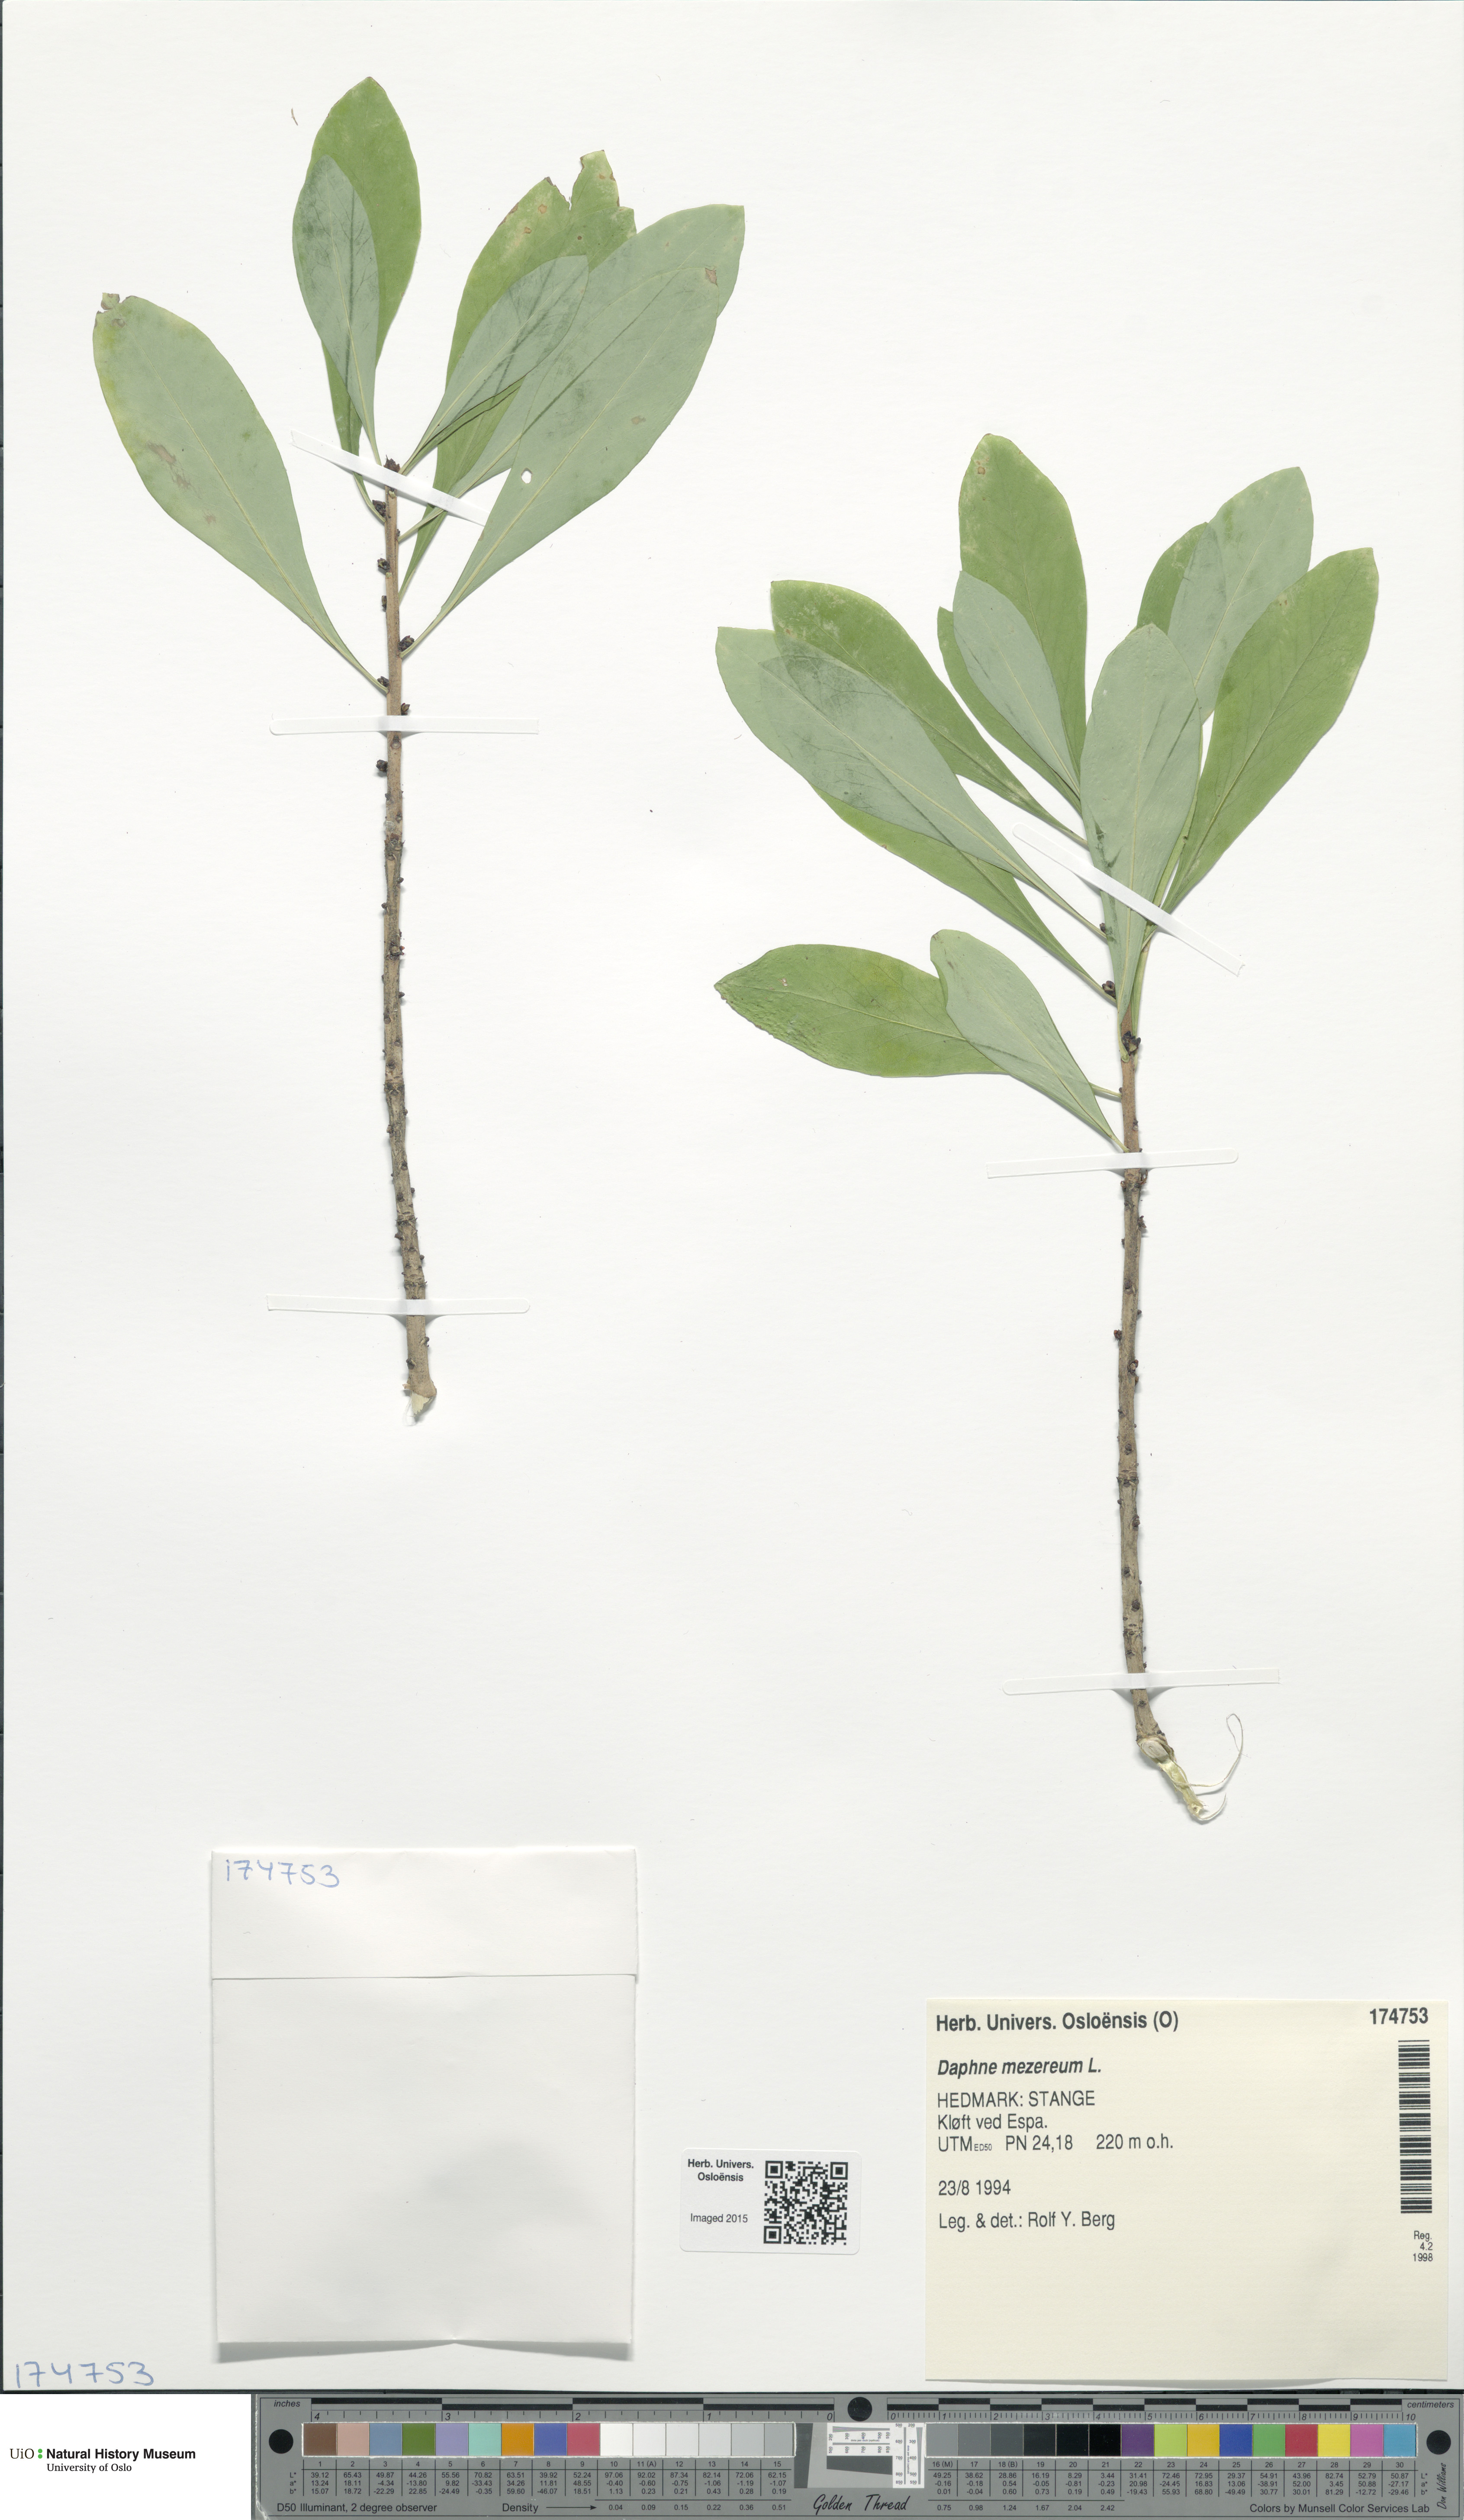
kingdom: Plantae
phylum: Tracheophyta
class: Magnoliopsida
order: Malvales
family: Thymelaeaceae
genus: Daphne
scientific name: Daphne mezereum
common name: Mezereon
